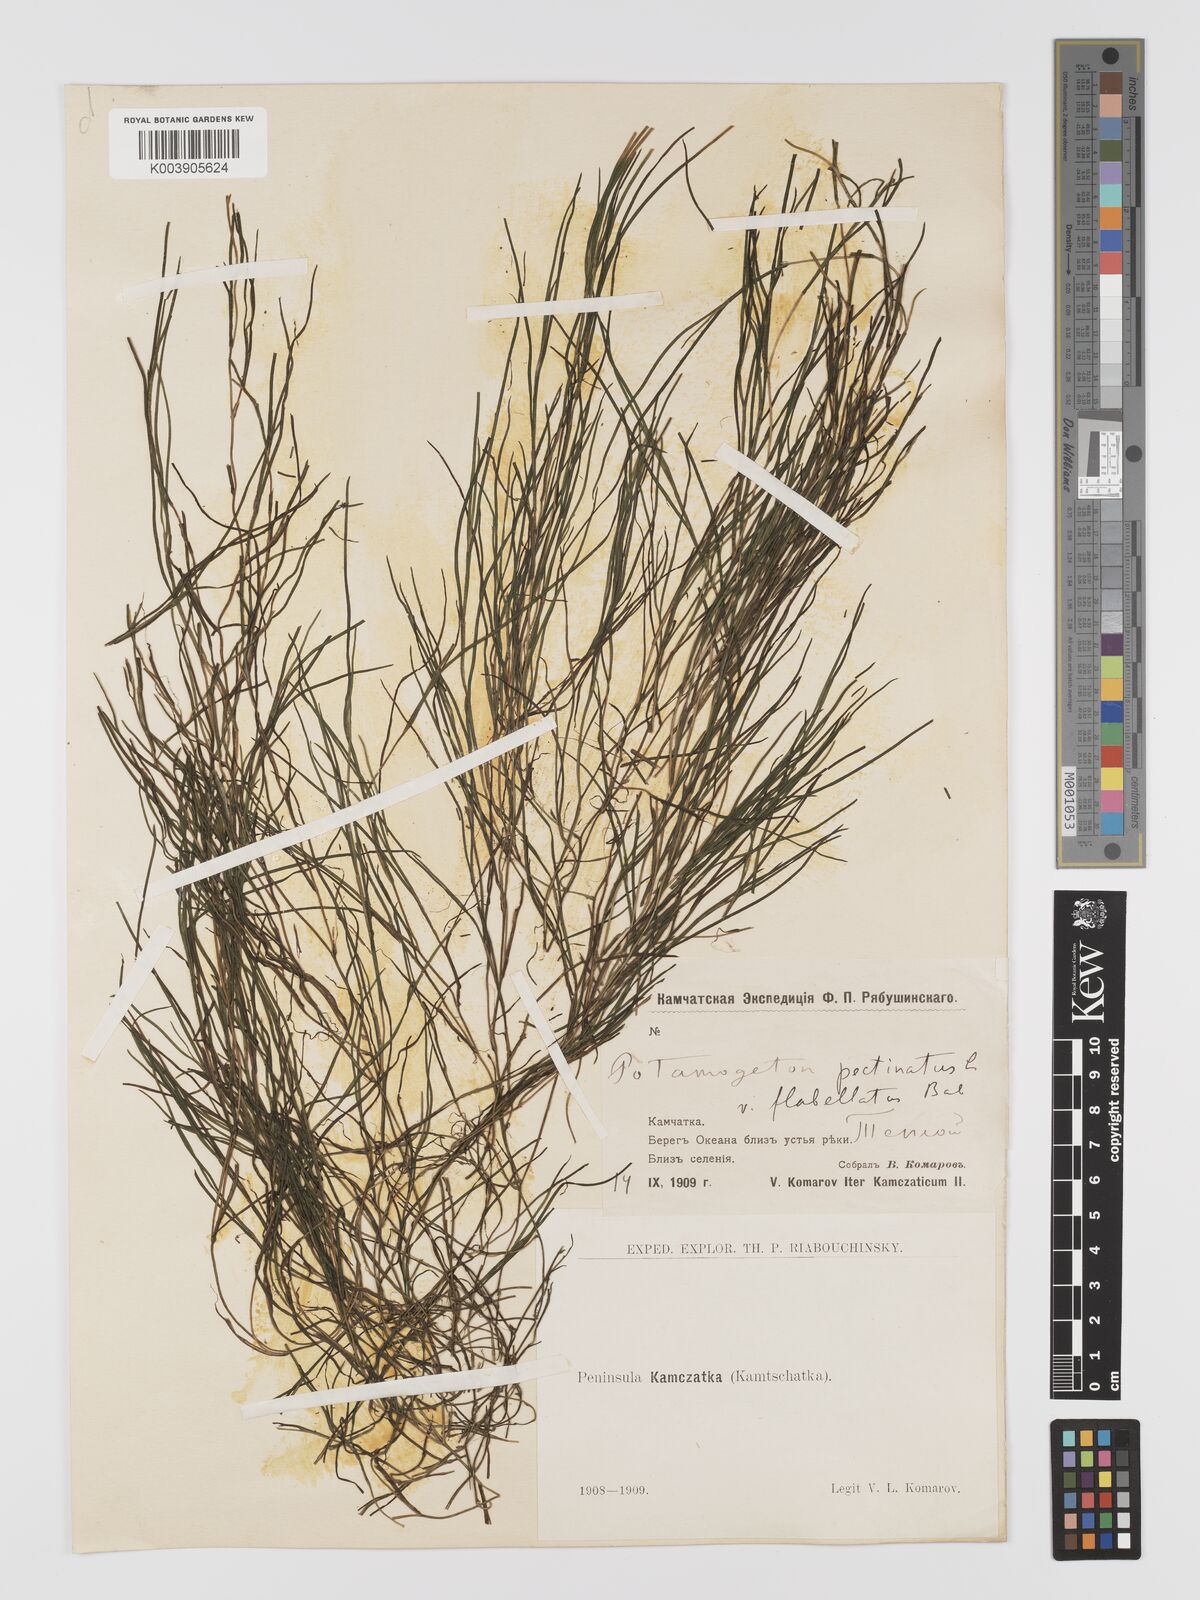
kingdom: Plantae
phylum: Tracheophyta
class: Liliopsida
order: Alismatales
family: Potamogetonaceae
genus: Stuckenia
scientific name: Stuckenia pectinata
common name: Sago pondweed
